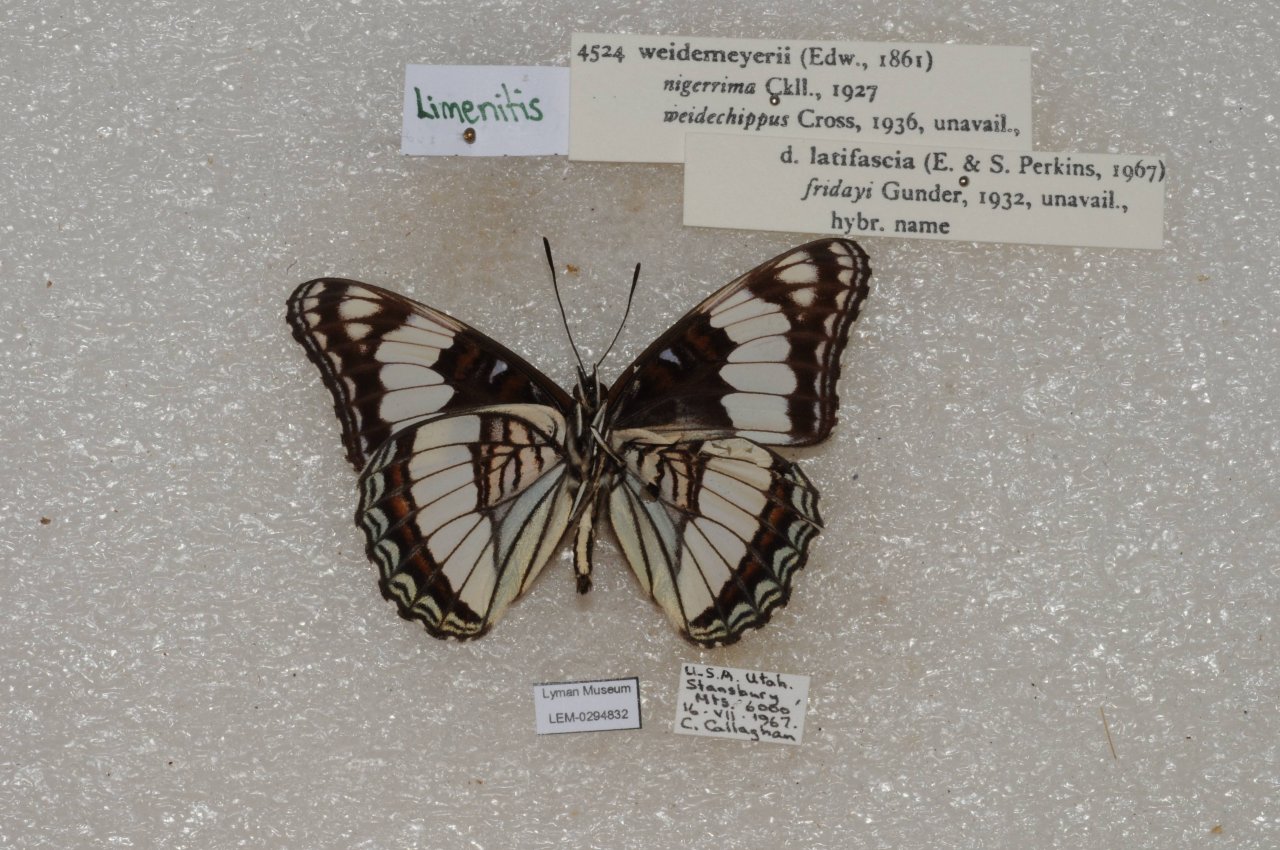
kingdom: Animalia
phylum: Arthropoda
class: Insecta
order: Lepidoptera
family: Nymphalidae
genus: Limenitis
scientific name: Limenitis weidemeyerii
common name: Weidemeyer's Admiral
